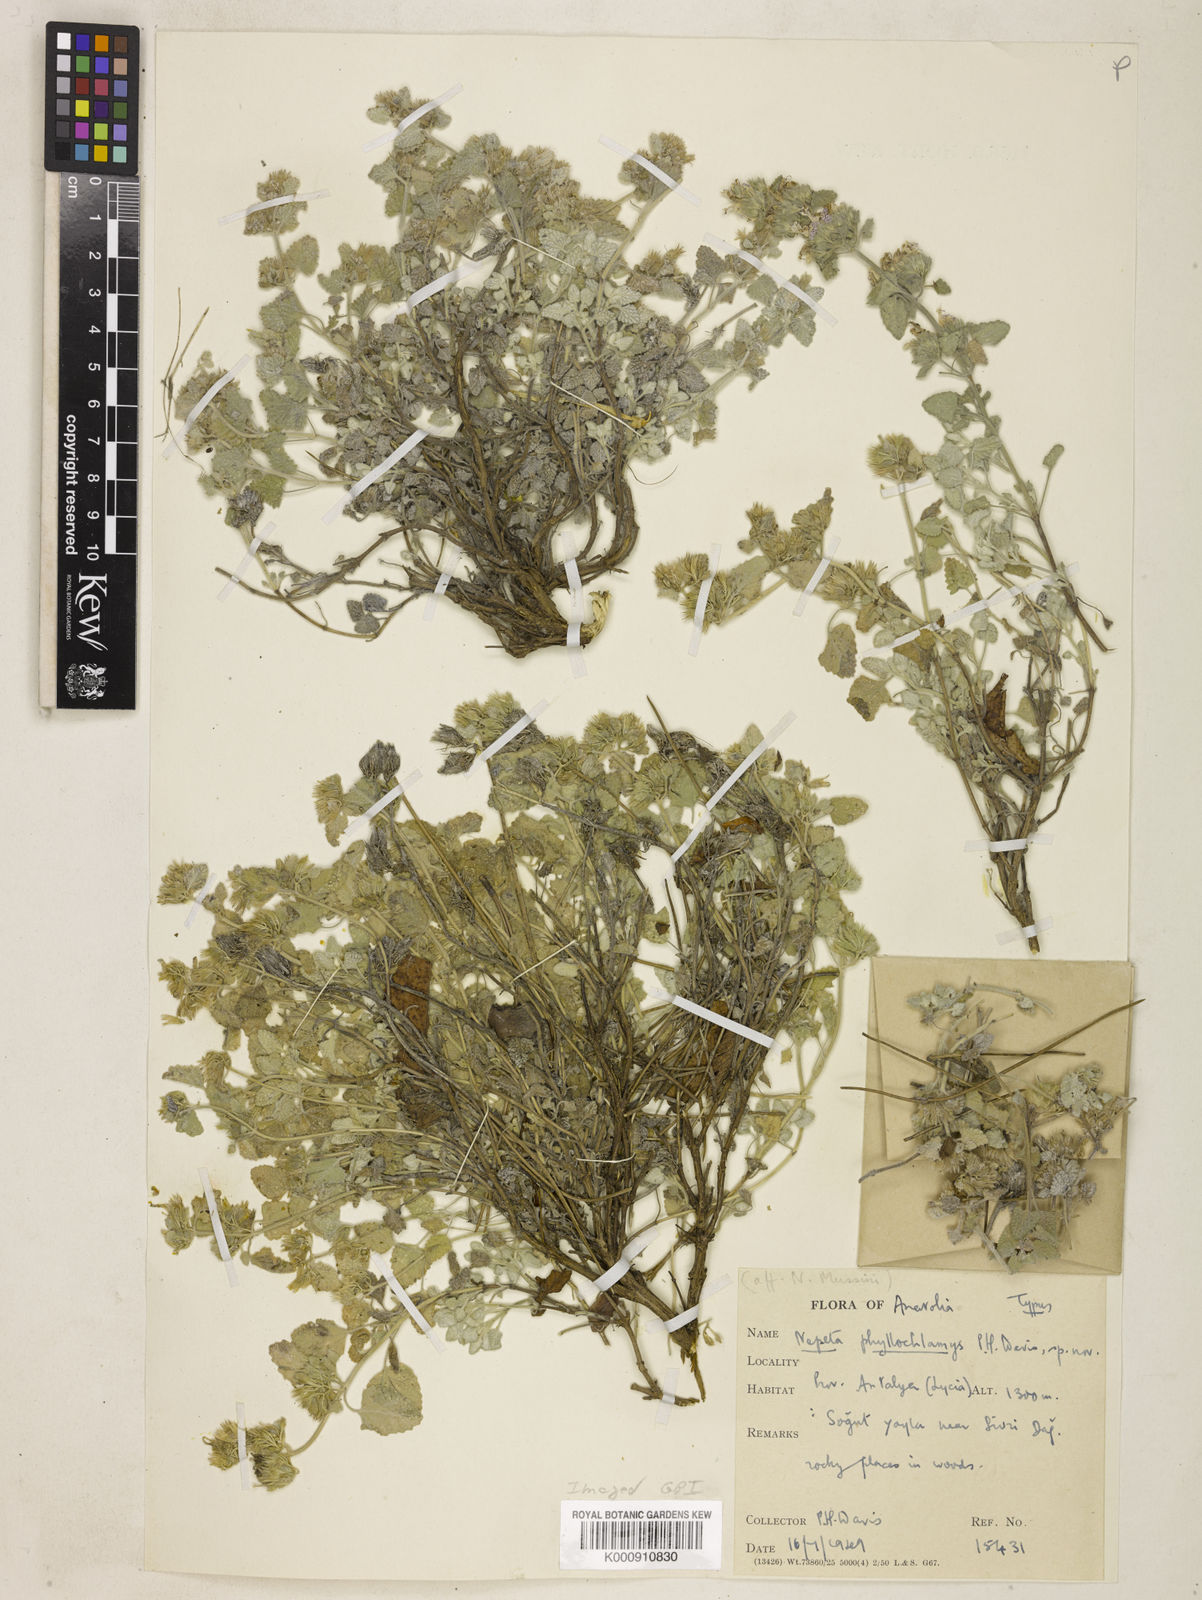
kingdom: Plantae
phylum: Tracheophyta
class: Magnoliopsida
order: Lamiales
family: Lamiaceae
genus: Nepeta
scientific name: Nepeta phyllochlamys
